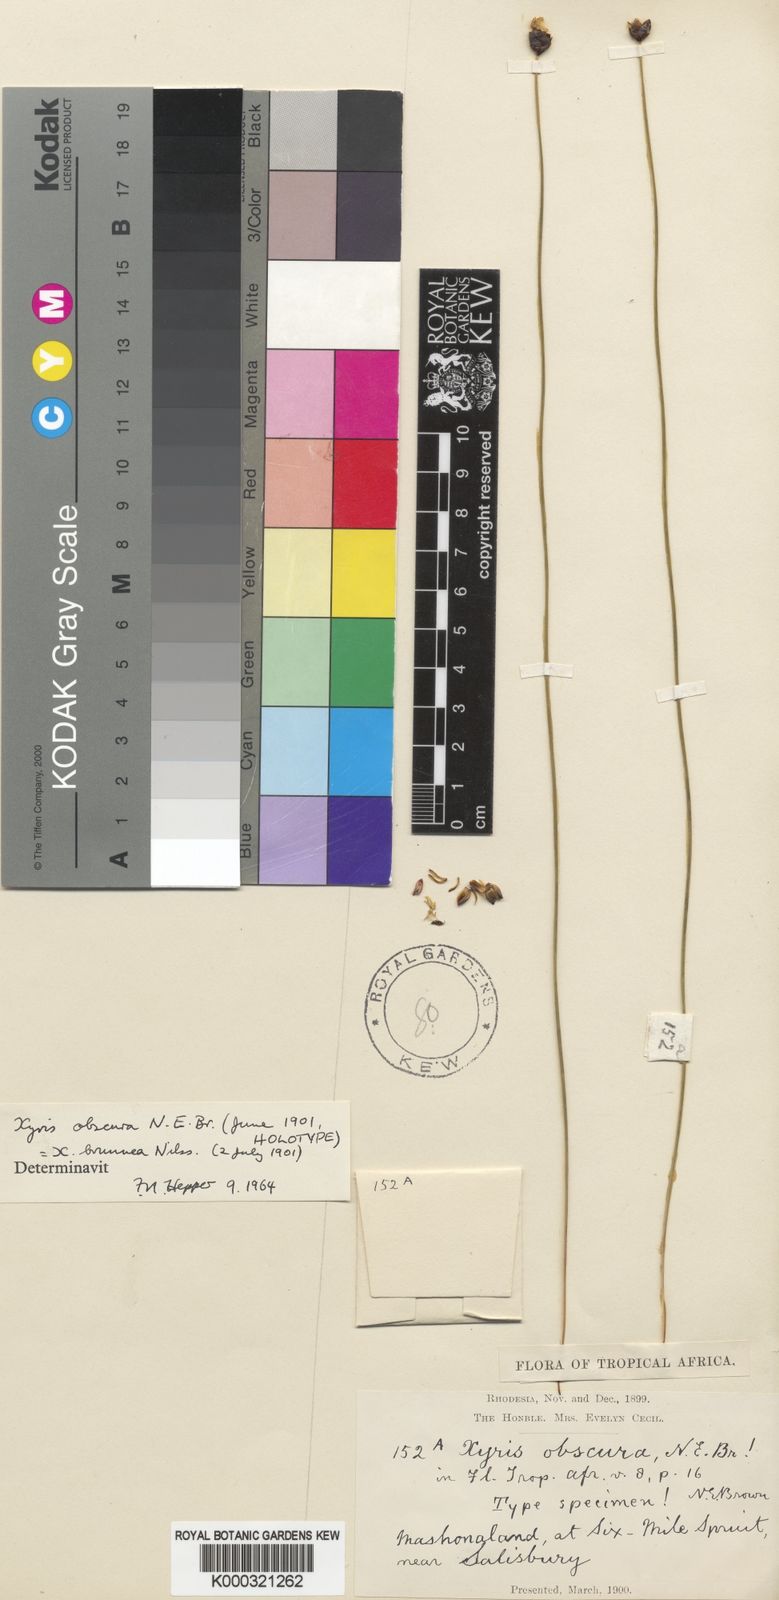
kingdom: Plantae
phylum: Tracheophyta
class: Liliopsida
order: Poales
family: Xyridaceae
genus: Xyris
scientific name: Xyris obscura
